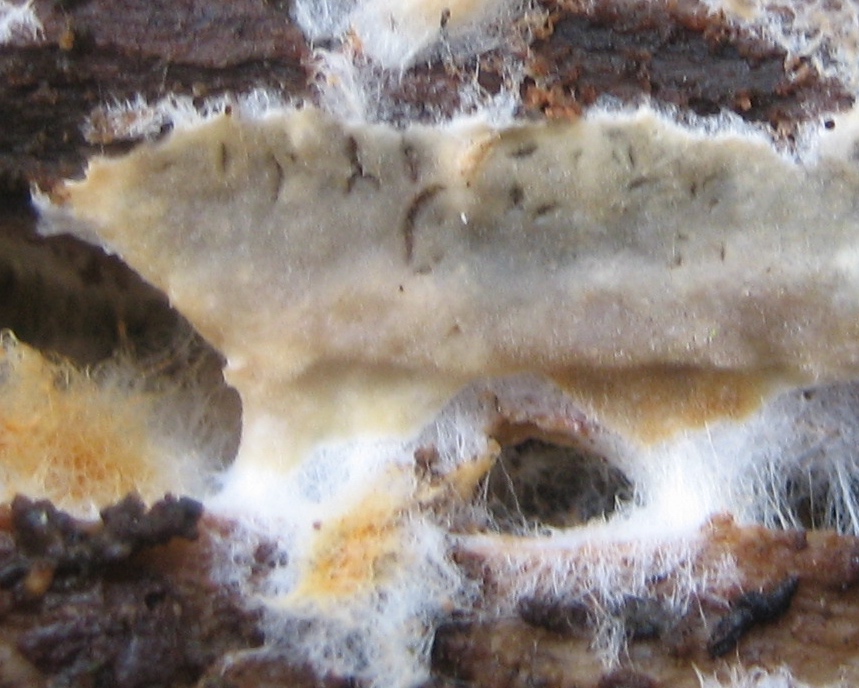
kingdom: Fungi
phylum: Basidiomycota
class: Agaricomycetes
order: Corticiales
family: Corticiaceae
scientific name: Corticiaceae
